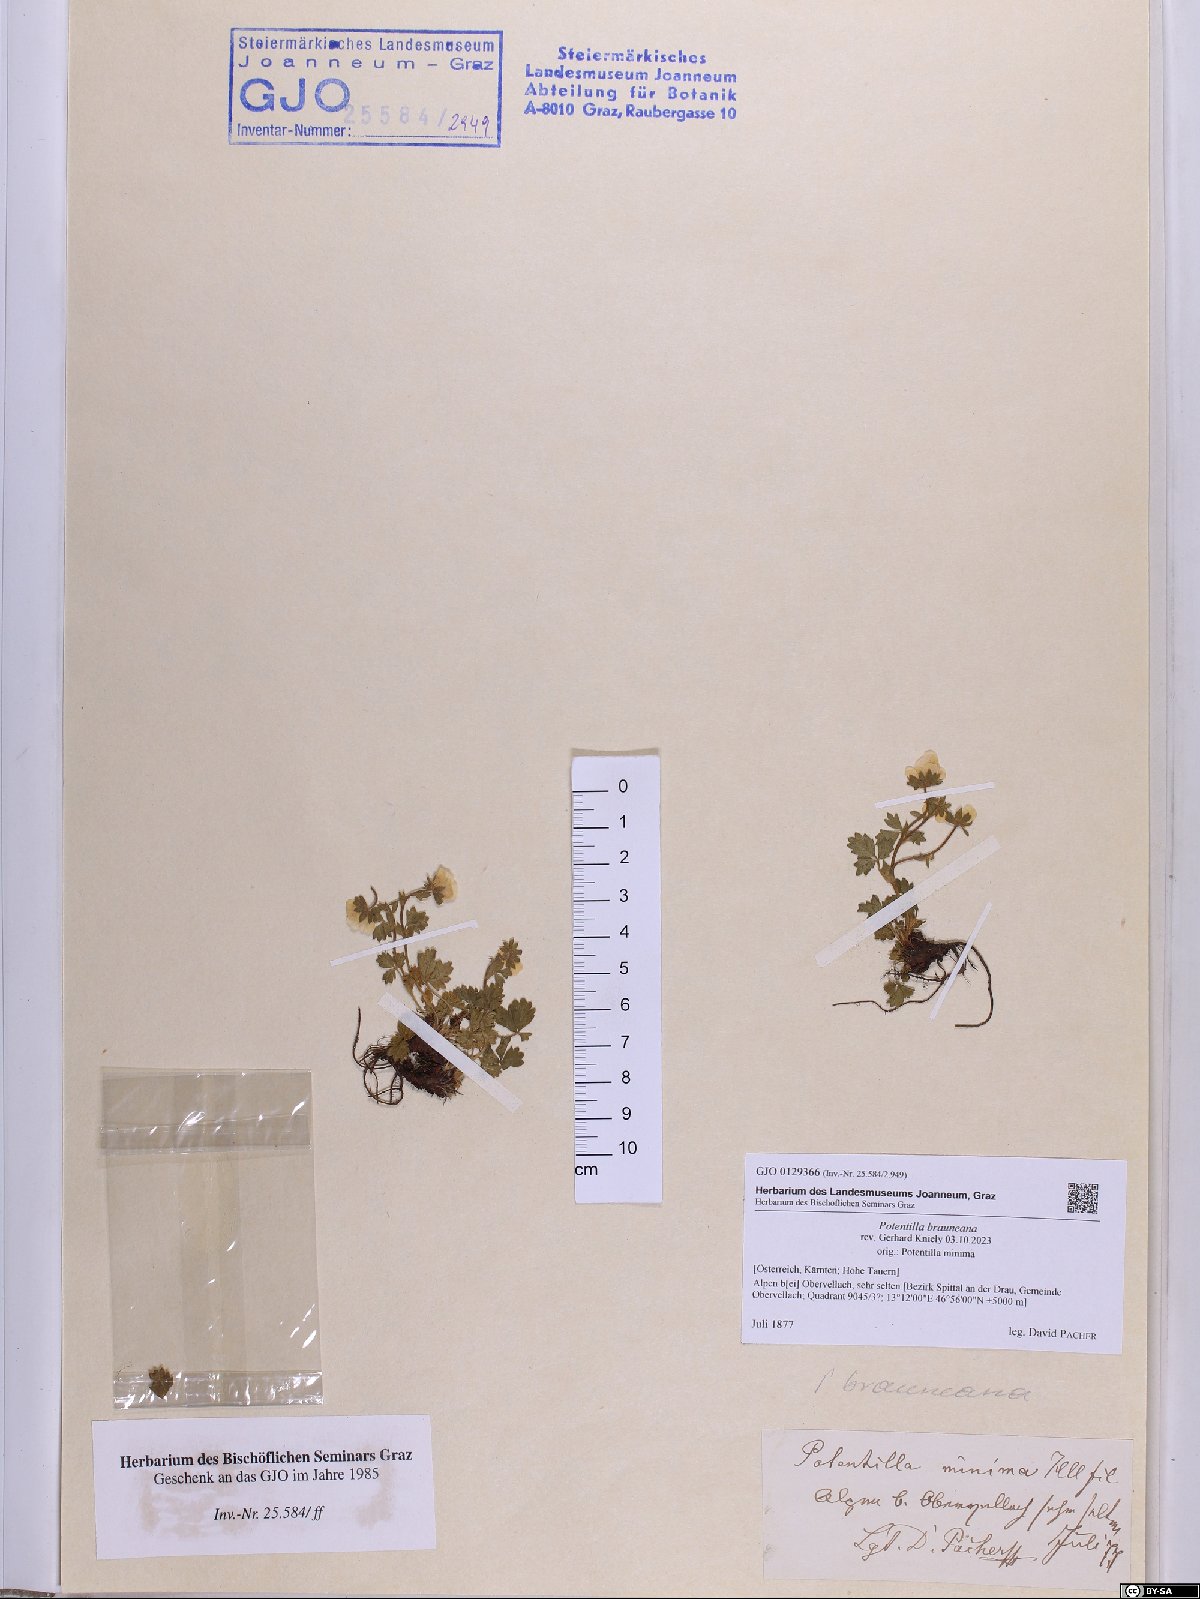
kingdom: Plantae
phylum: Tracheophyta
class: Magnoliopsida
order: Rosales
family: Rosaceae
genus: Potentilla
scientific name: Potentilla brauneana
